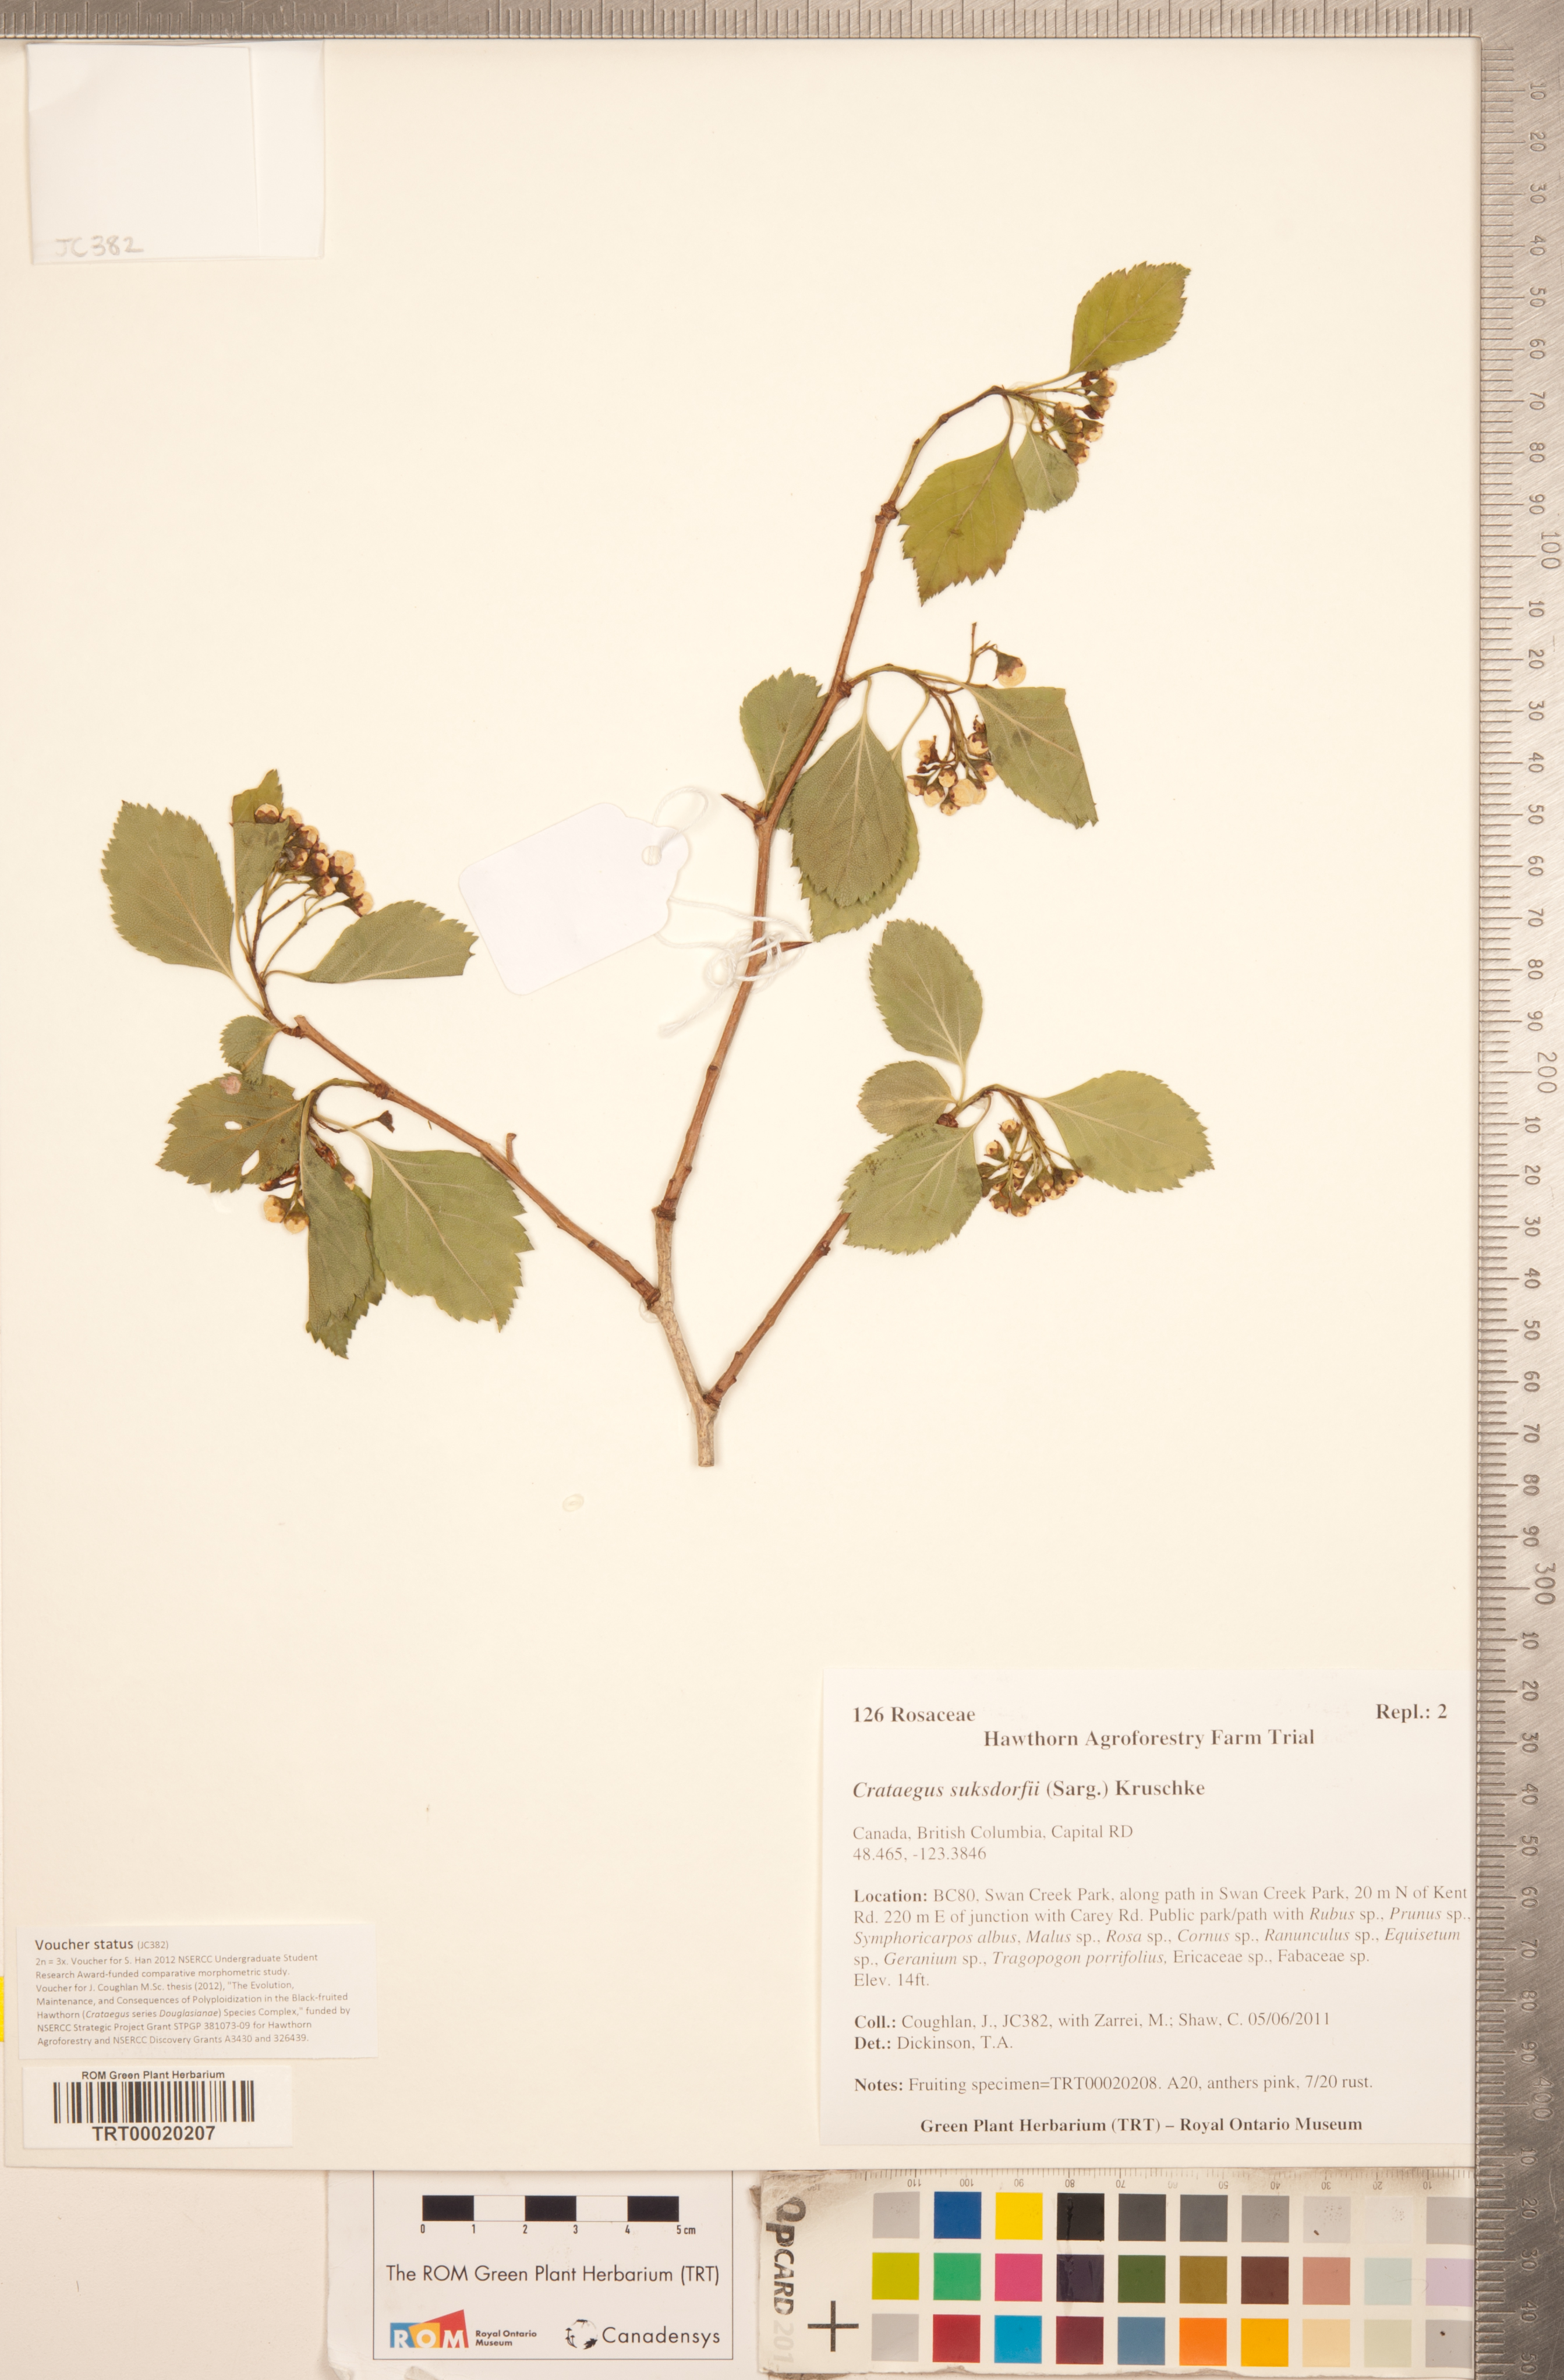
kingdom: Plantae
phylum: Tracheophyta
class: Magnoliopsida
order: Rosales
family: Rosaceae
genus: Crataegus
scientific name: Crataegus gaylussacia
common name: Huckleberry hawthorn
